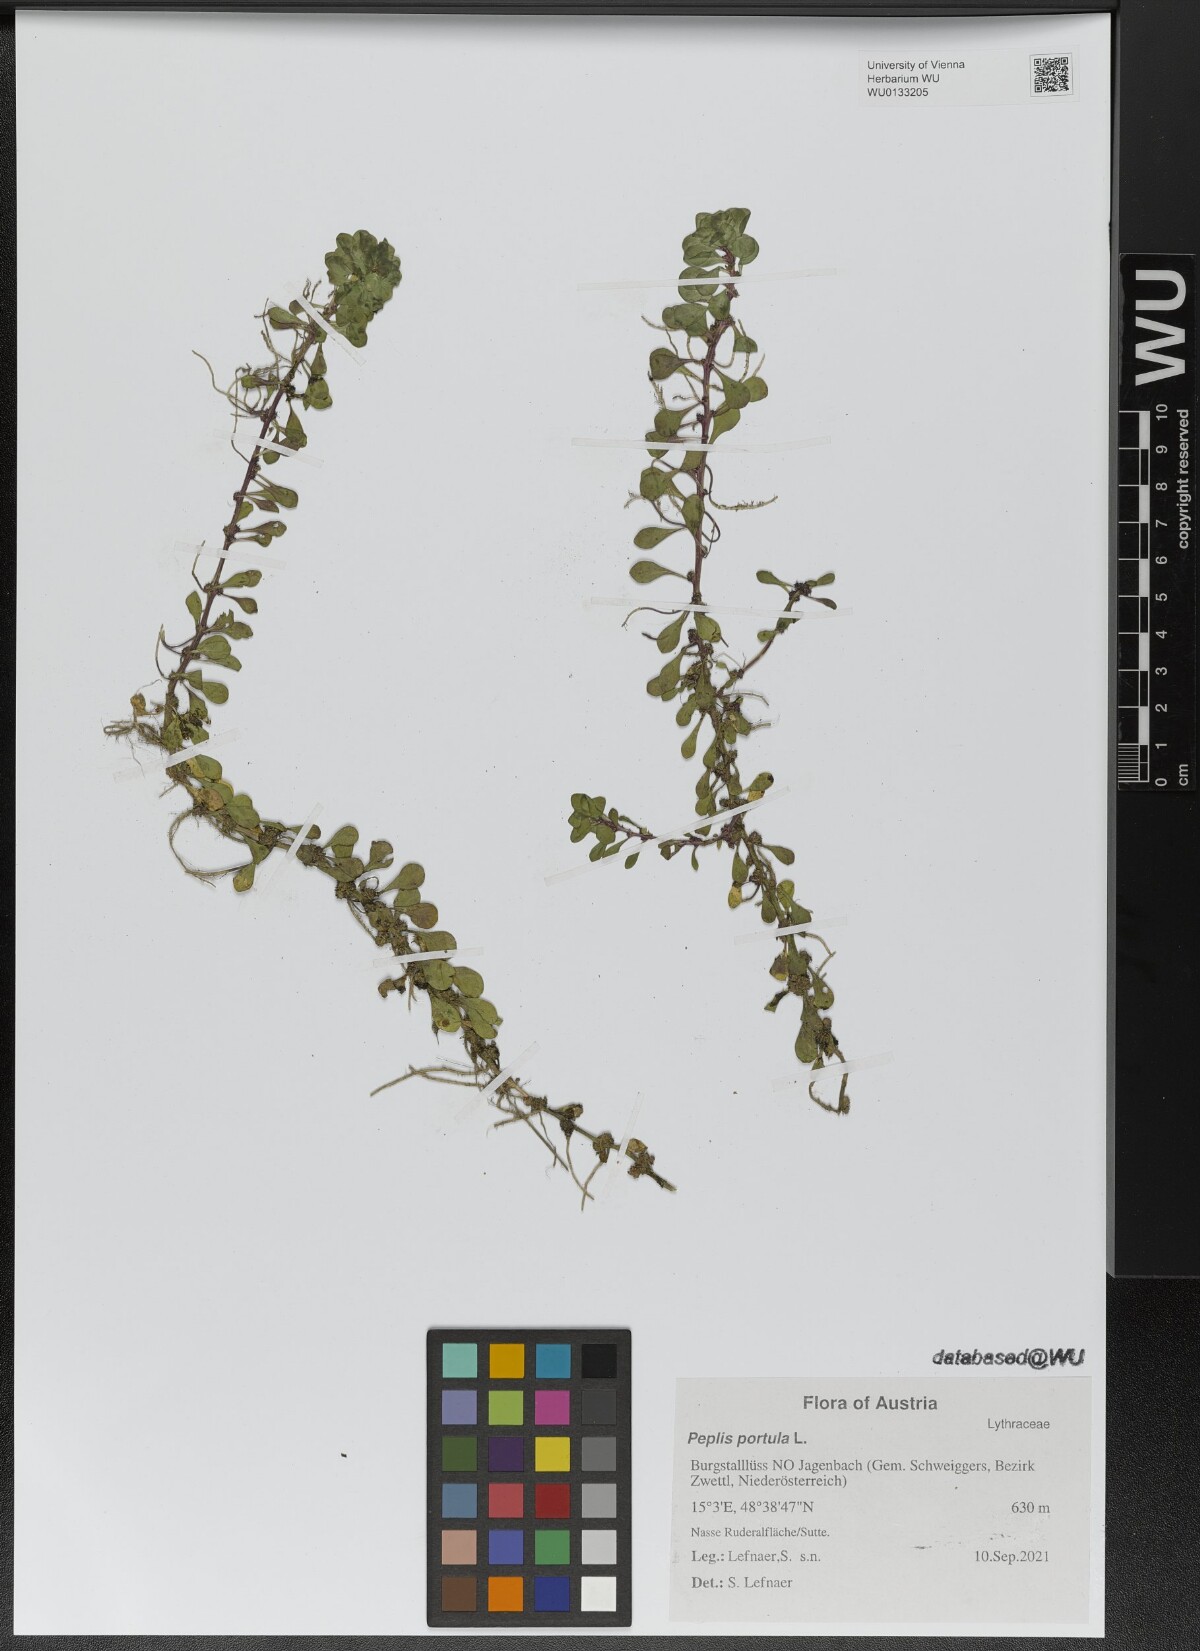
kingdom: Plantae
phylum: Tracheophyta
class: Magnoliopsida
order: Myrtales
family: Lythraceae
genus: Lythrum
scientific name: Lythrum portula
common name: Water purslane
